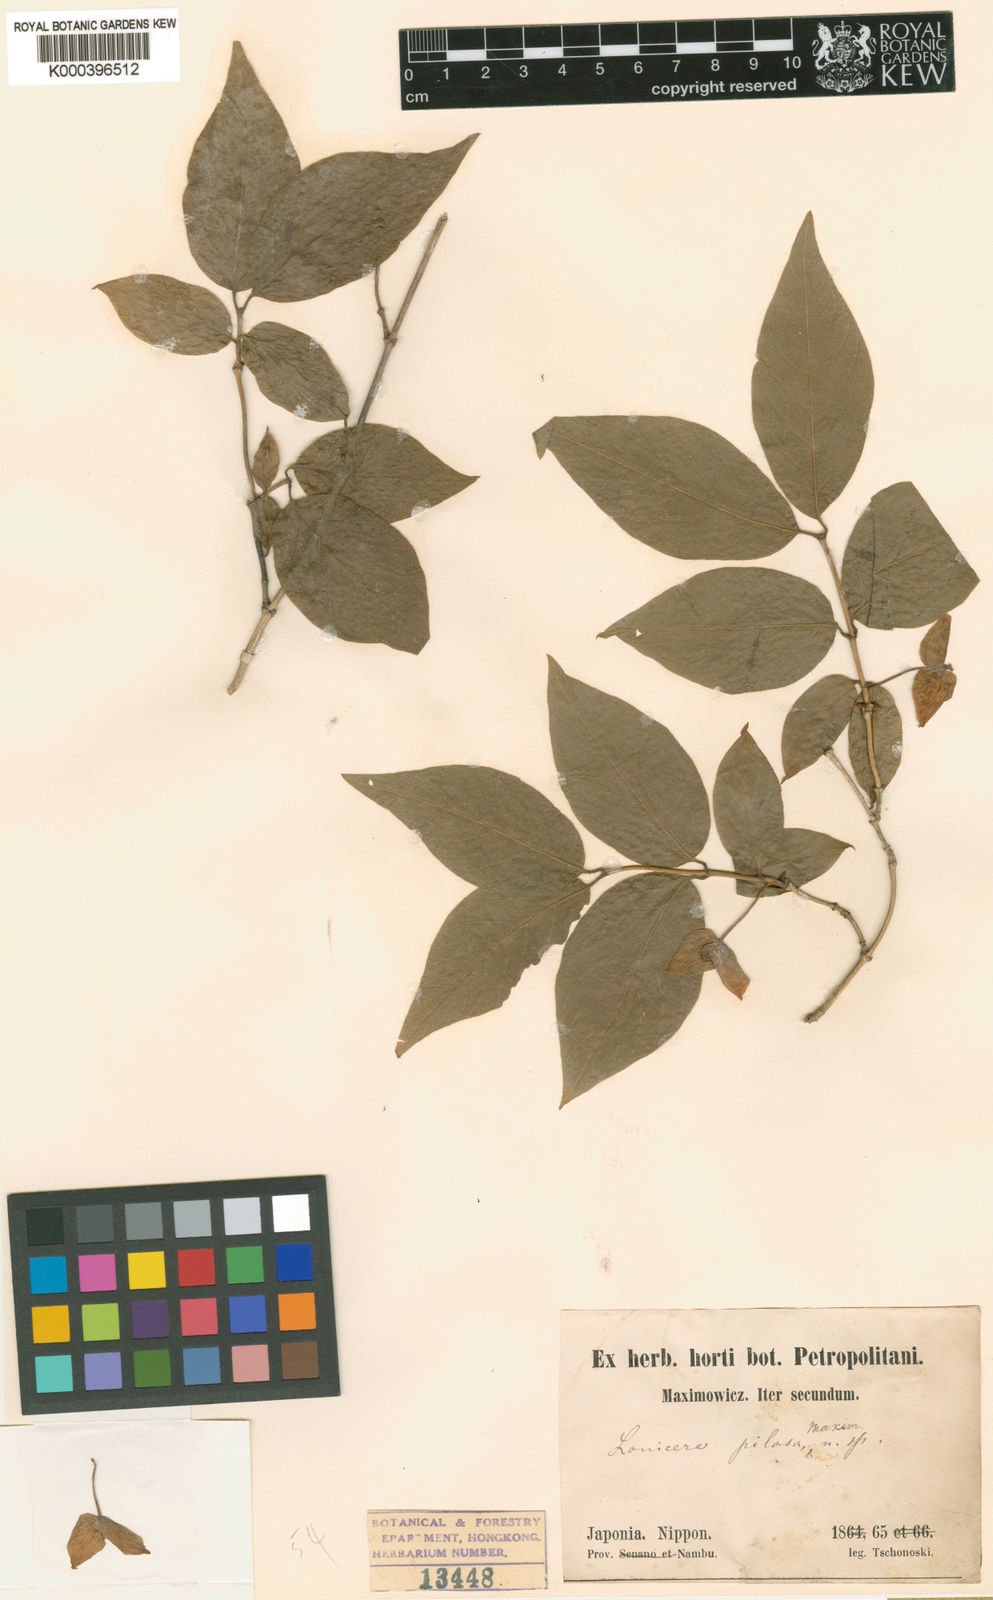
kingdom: Plantae
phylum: Tracheophyta
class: Magnoliopsida
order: Dipsacales
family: Caprifoliaceae
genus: Lonicera
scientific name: Lonicera strophiophora
